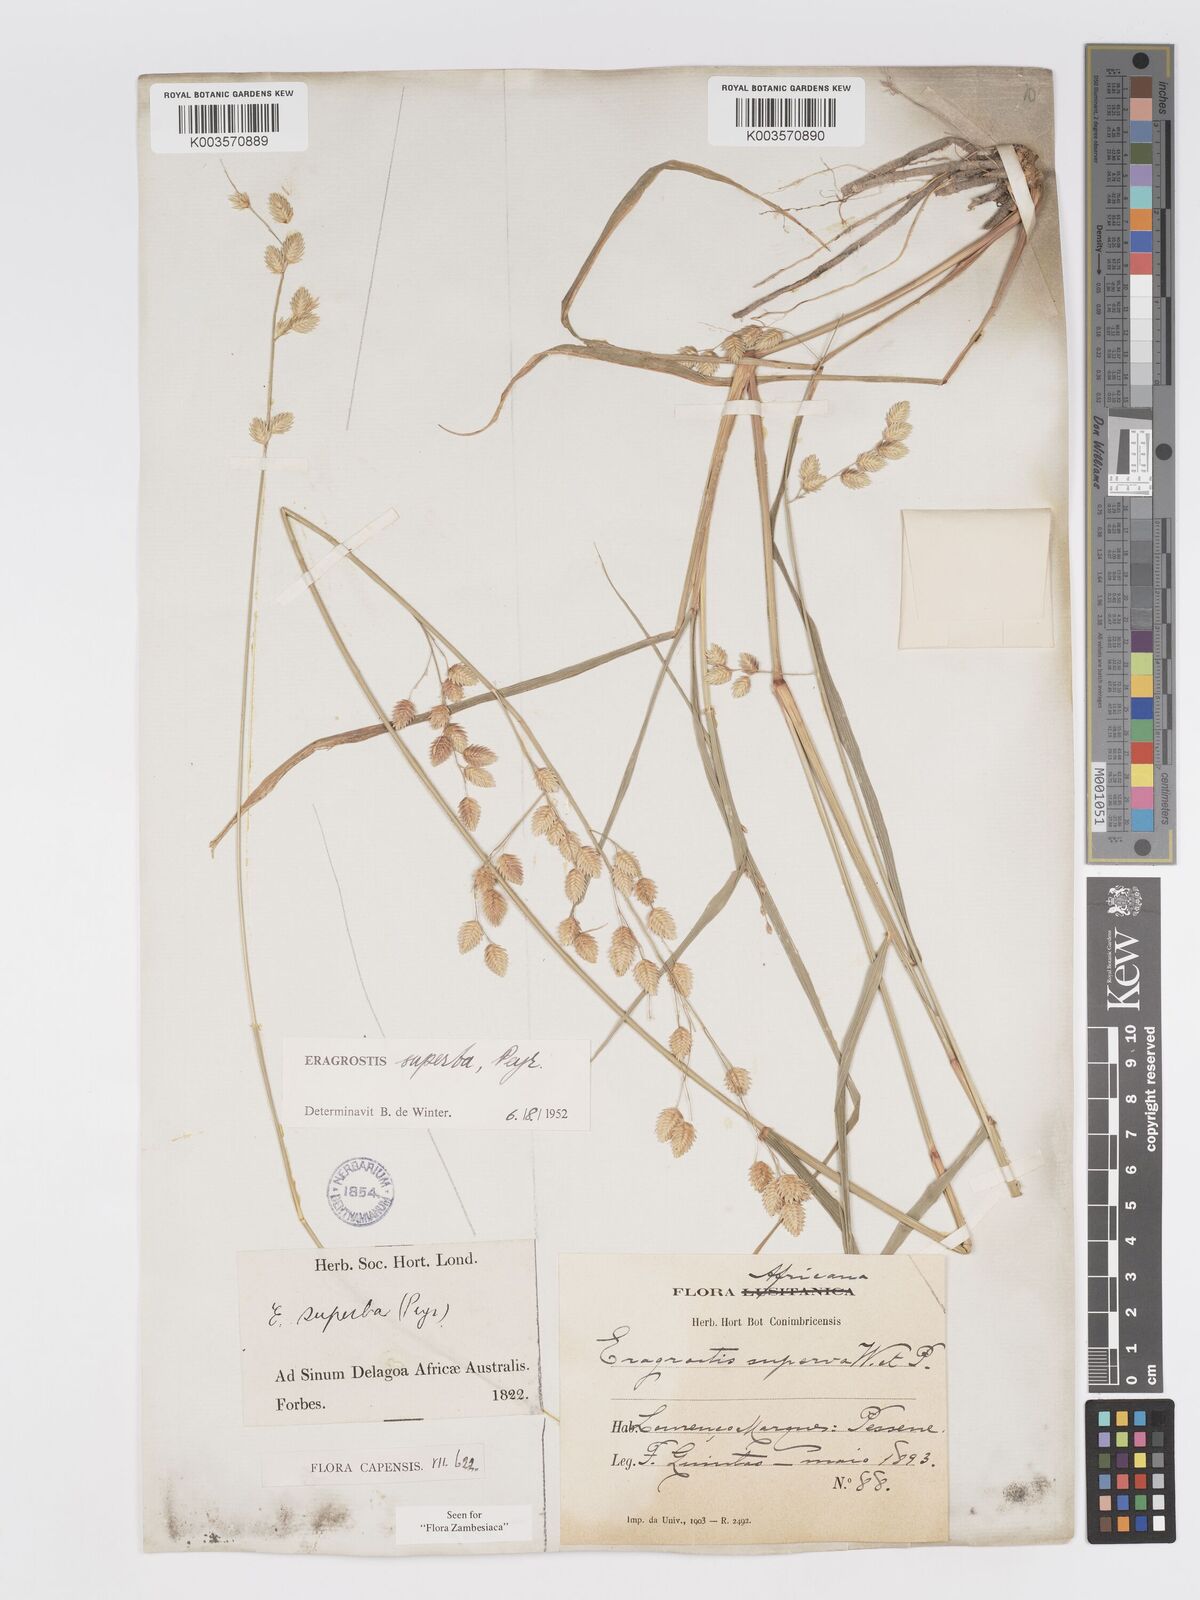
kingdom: Plantae
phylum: Tracheophyta
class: Liliopsida
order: Poales
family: Poaceae
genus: Eragrostis
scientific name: Eragrostis superba
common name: Wilman lovegrass
